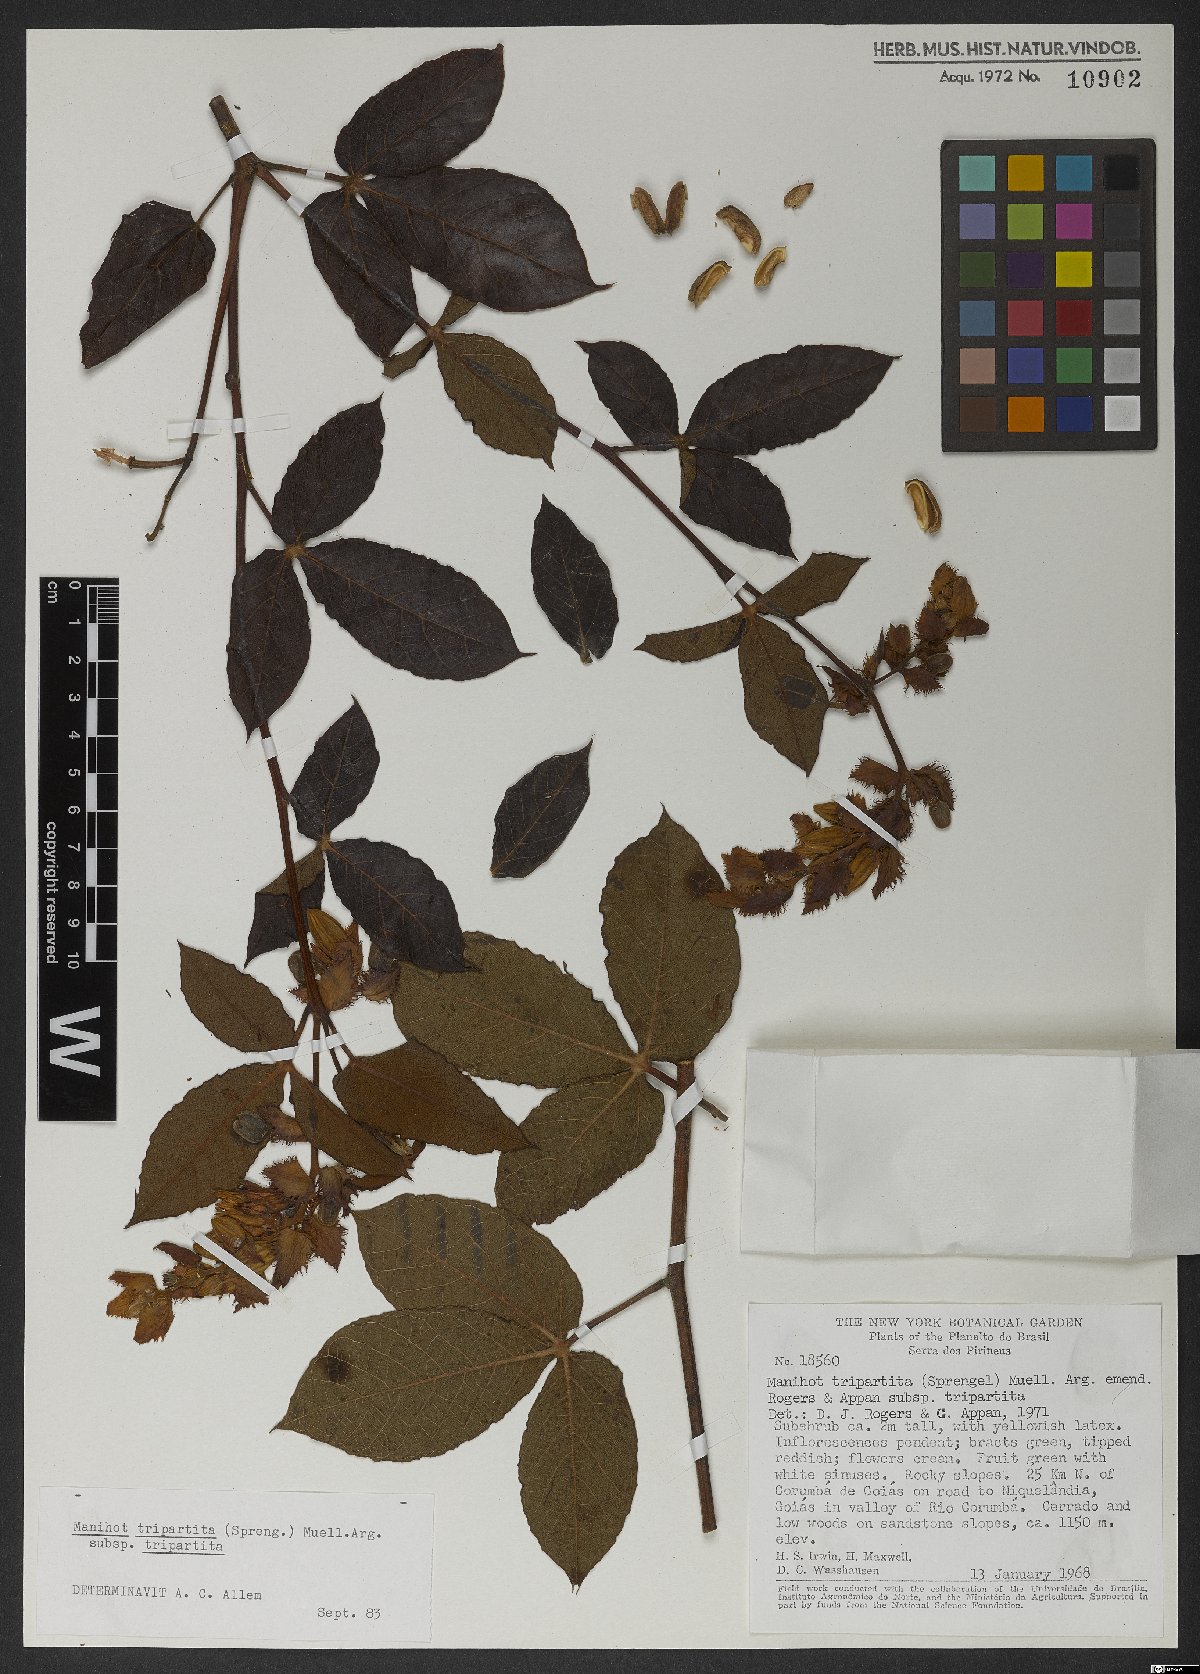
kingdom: Plantae
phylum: Tracheophyta
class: Magnoliopsida
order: Malpighiales
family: Euphorbiaceae
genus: Manihot
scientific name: Manihot tripartita
